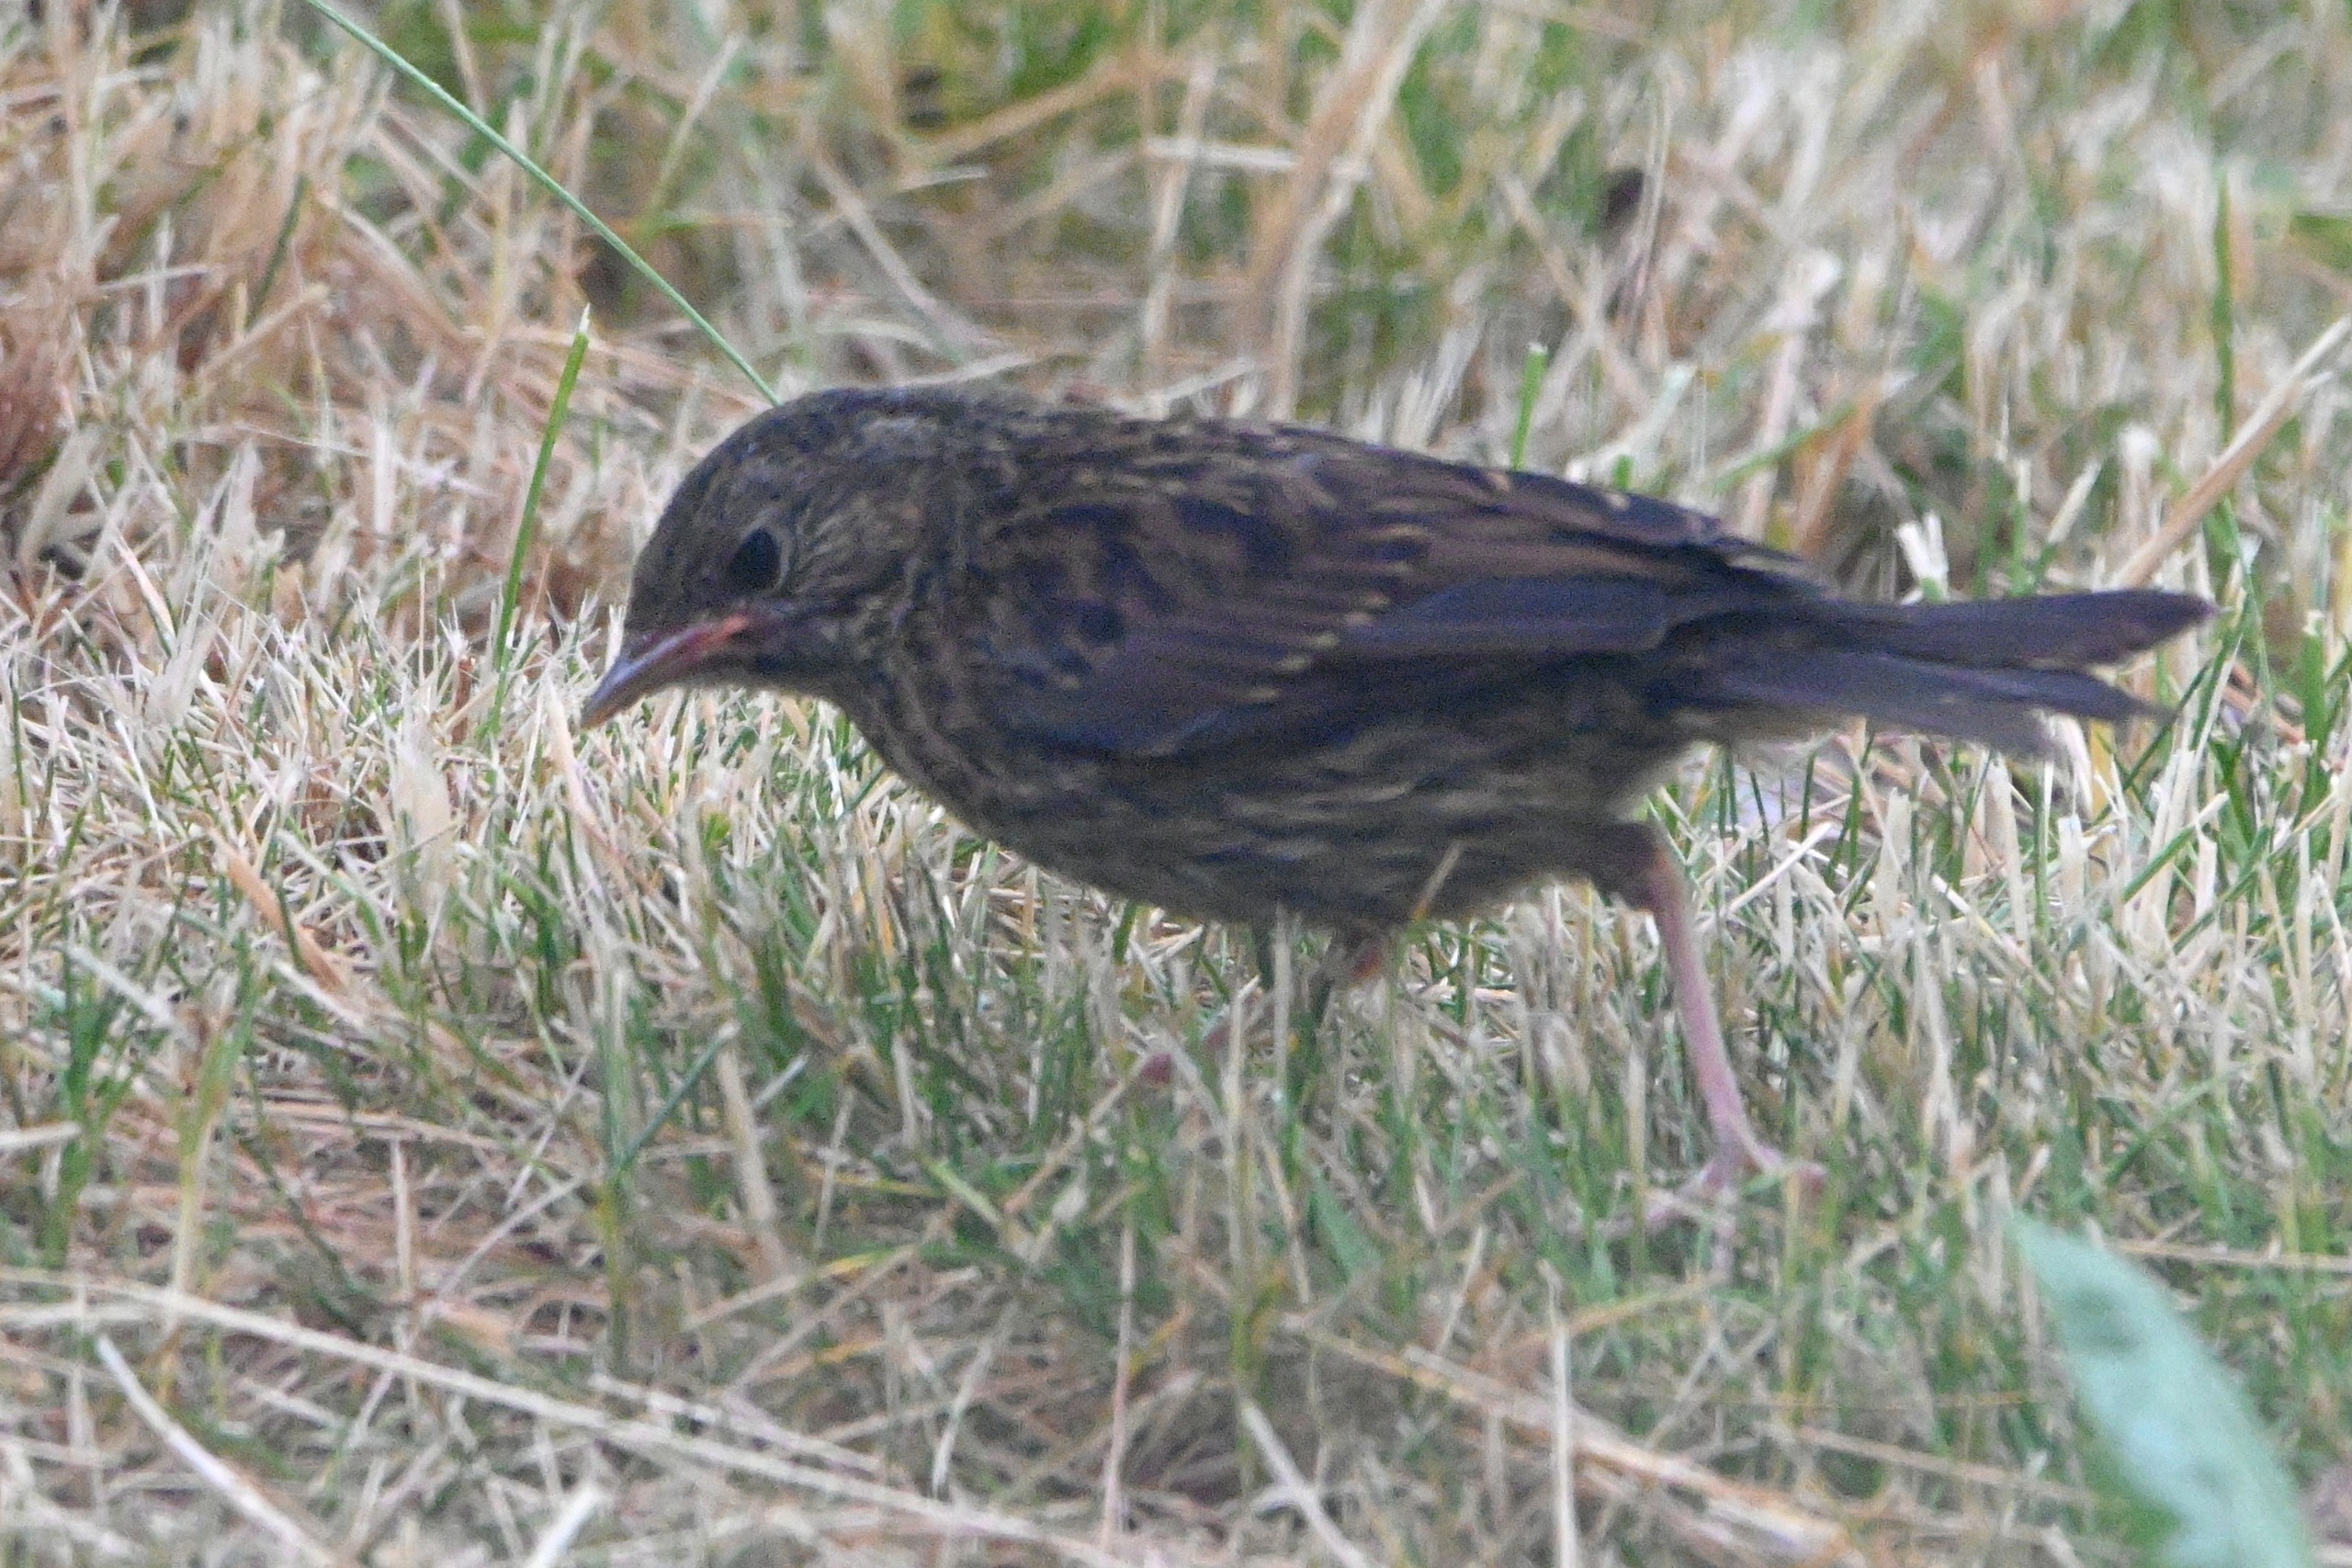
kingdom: Animalia
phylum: Chordata
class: Aves
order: Passeriformes
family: Prunellidae
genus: Prunella
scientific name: Prunella modularis
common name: Jernspurv
